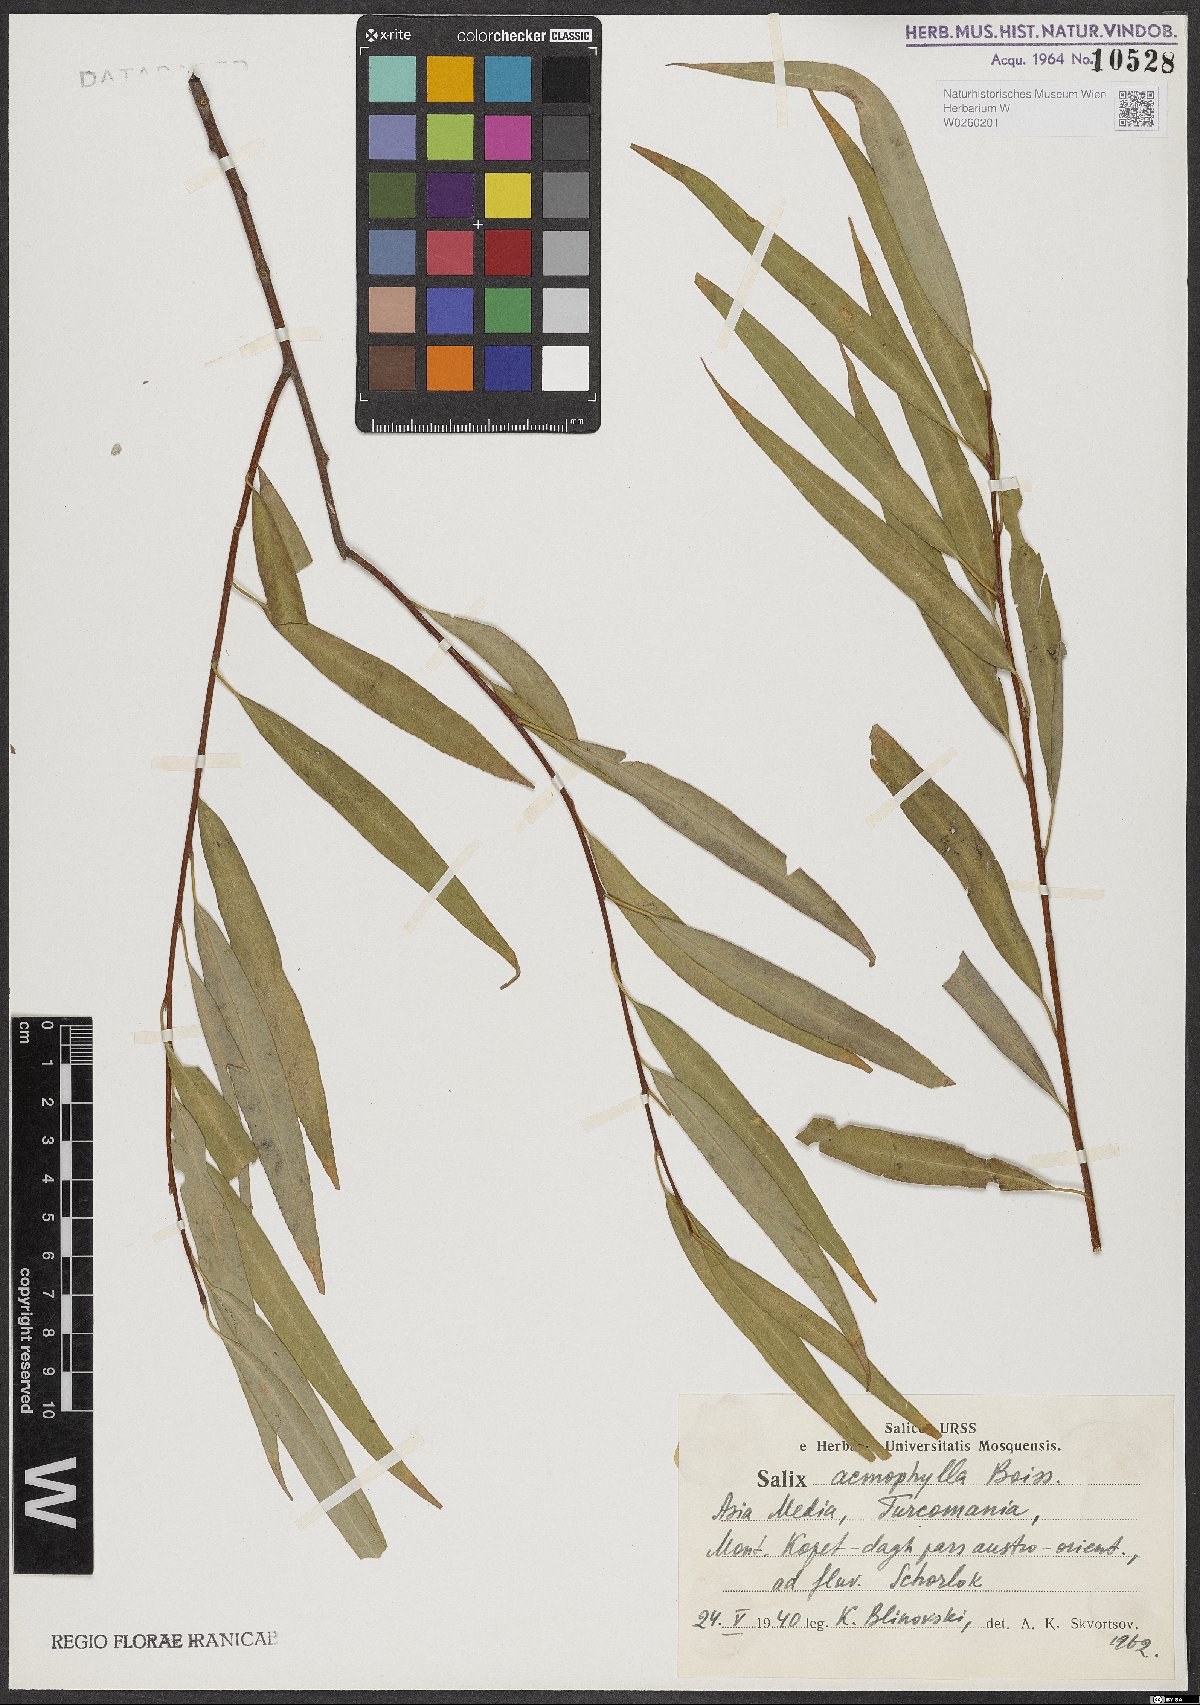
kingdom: Plantae
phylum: Tracheophyta
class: Magnoliopsida
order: Malpighiales
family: Salicaceae
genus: Salix
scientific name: Salix acmophylla
